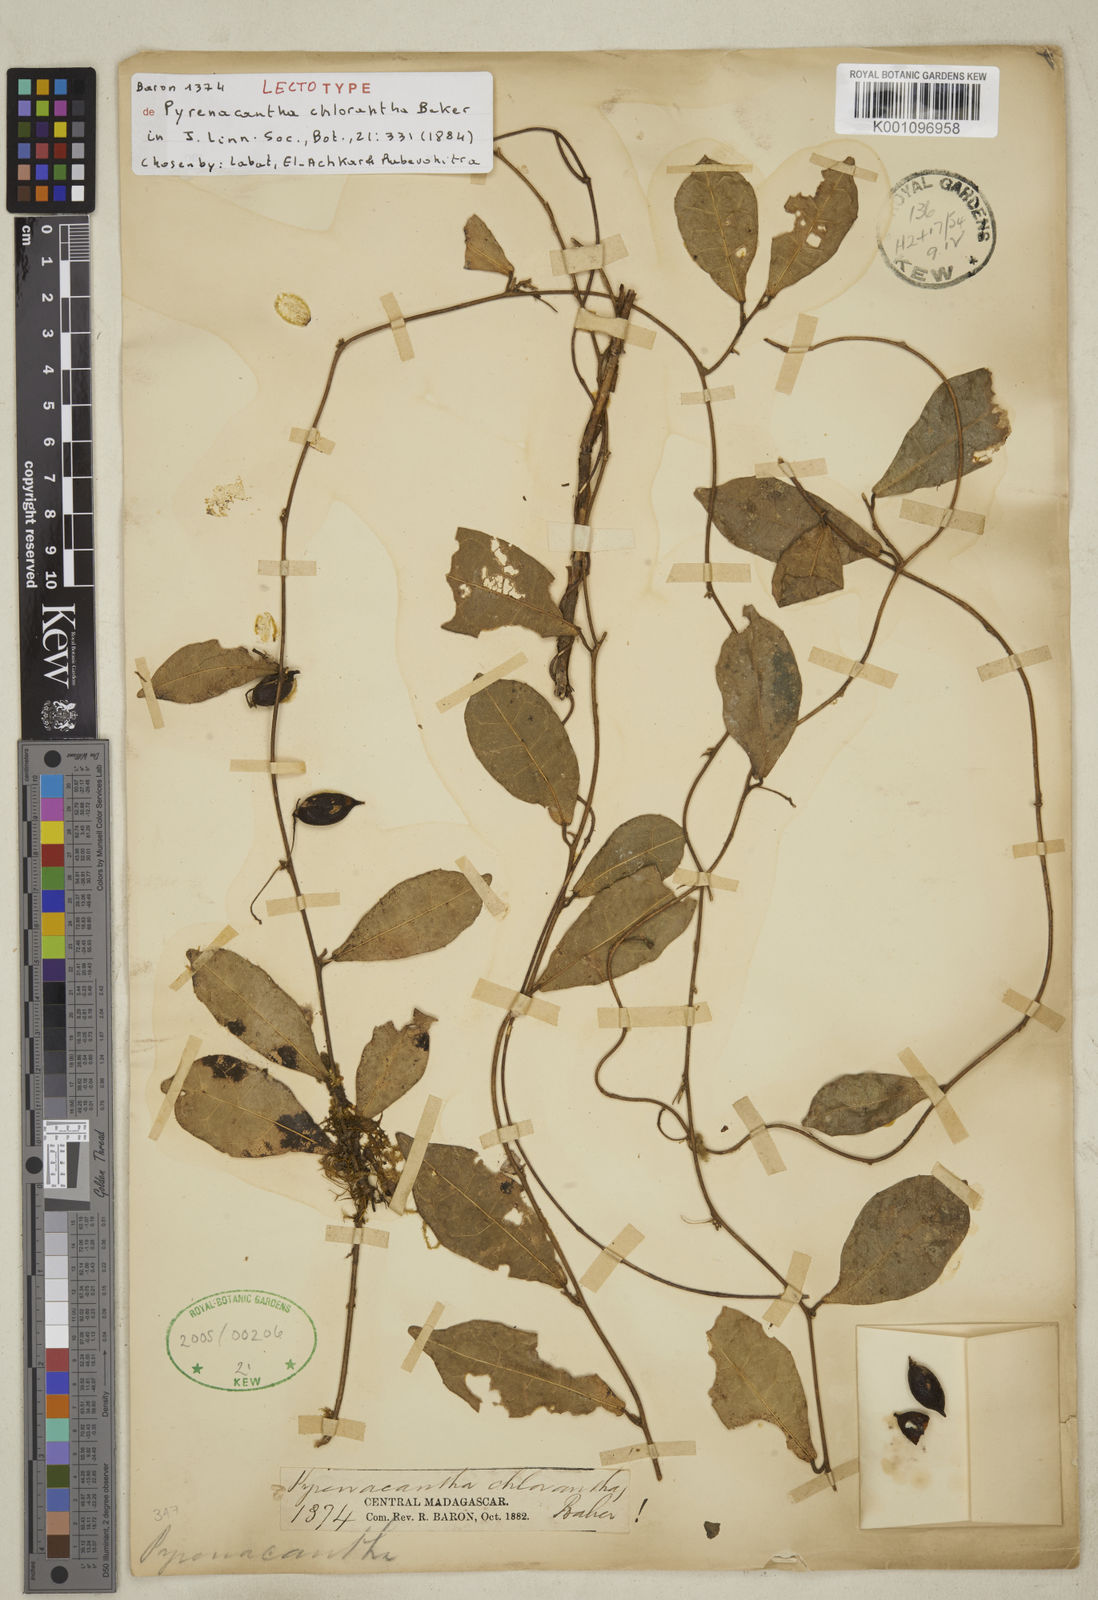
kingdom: Plantae
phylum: Tracheophyta
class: Magnoliopsida
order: Icacinales
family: Icacinaceae
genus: Pyrenacantha
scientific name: Pyrenacantha chlorantha
